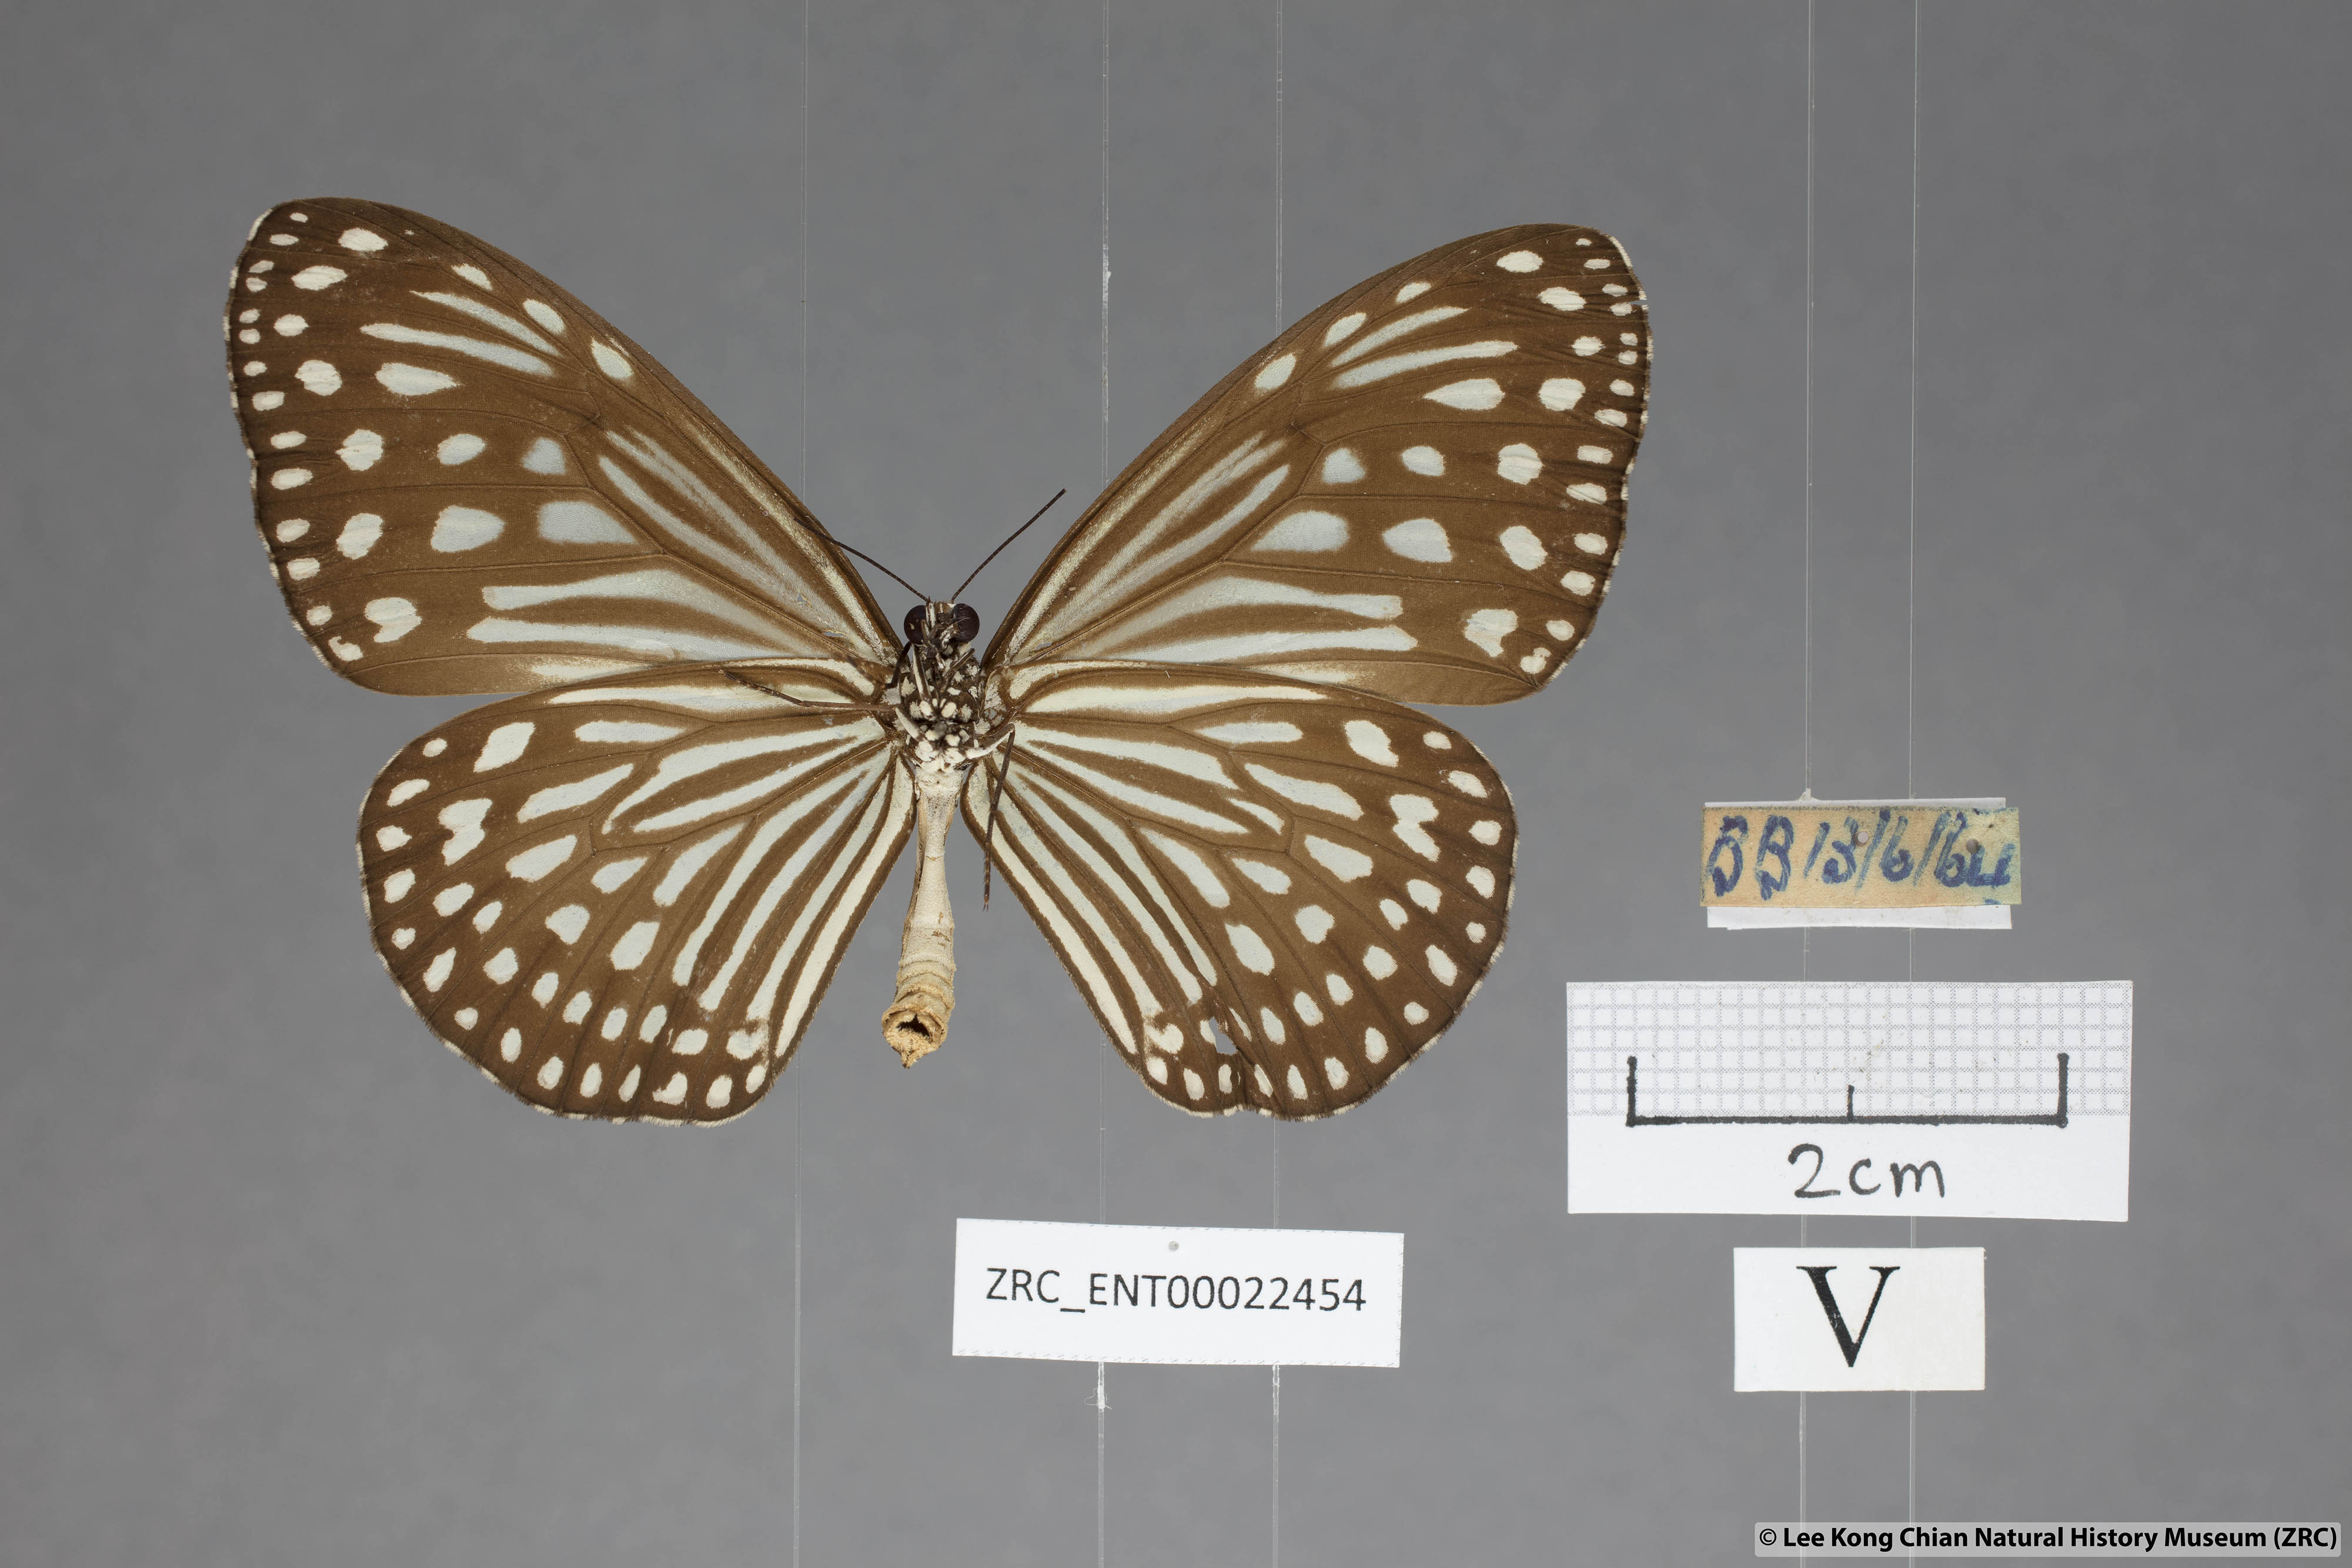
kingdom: Animalia
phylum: Arthropoda
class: Insecta
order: Lepidoptera
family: Nymphalidae
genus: Parantica
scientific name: Parantica agleoides
